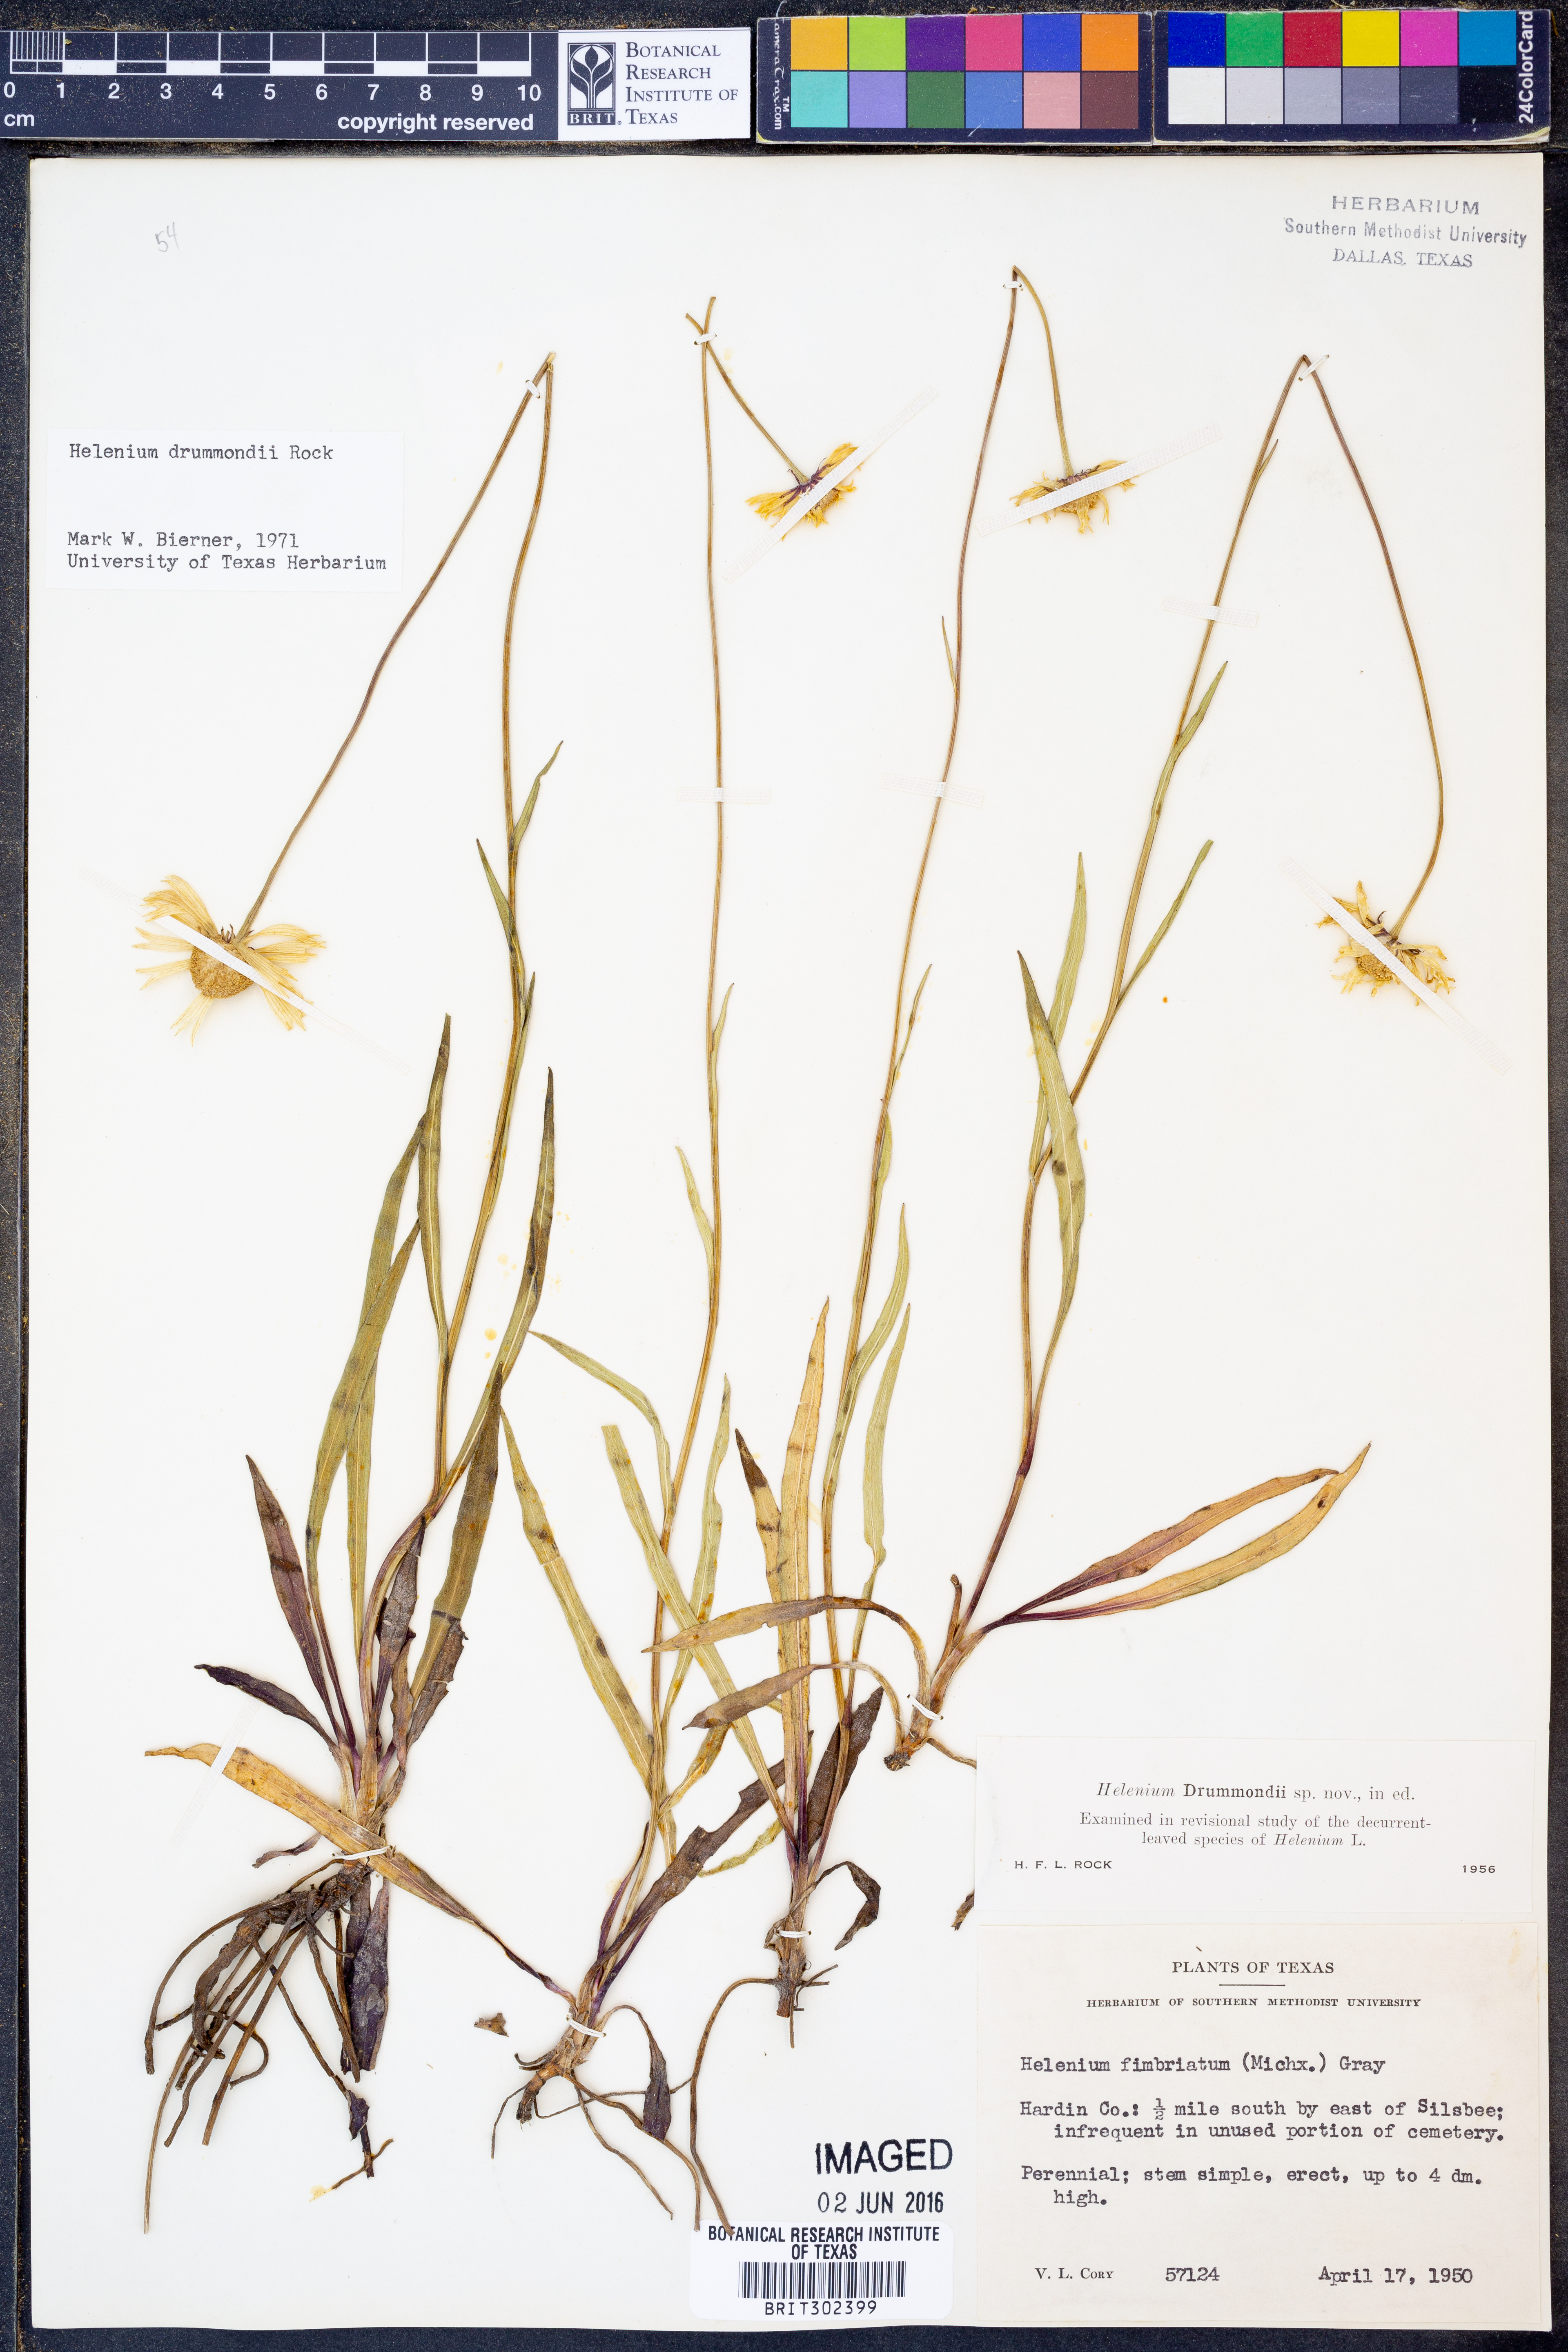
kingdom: Plantae
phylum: Tracheophyta
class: Magnoliopsida
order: Asterales
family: Asteraceae
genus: Helenium
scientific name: Helenium drummondii
